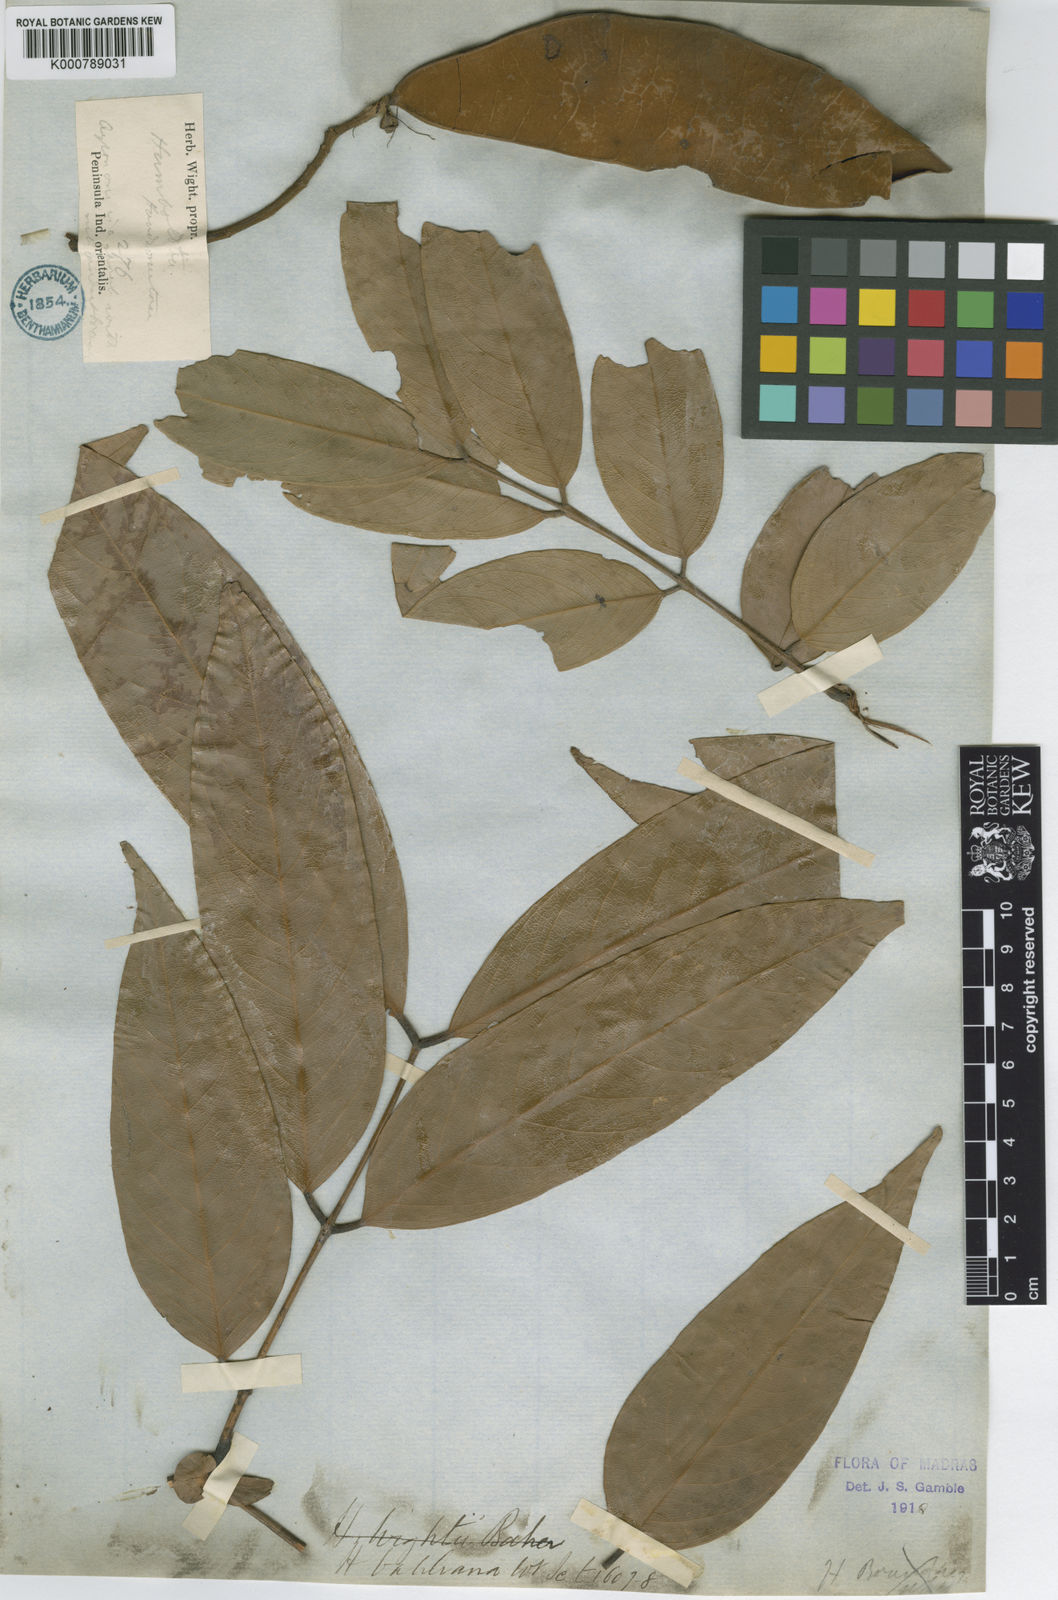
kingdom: Plantae
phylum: Tracheophyta
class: Magnoliopsida
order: Fabales
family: Fabaceae
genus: Humboldtia
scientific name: Humboldtia vahliana
